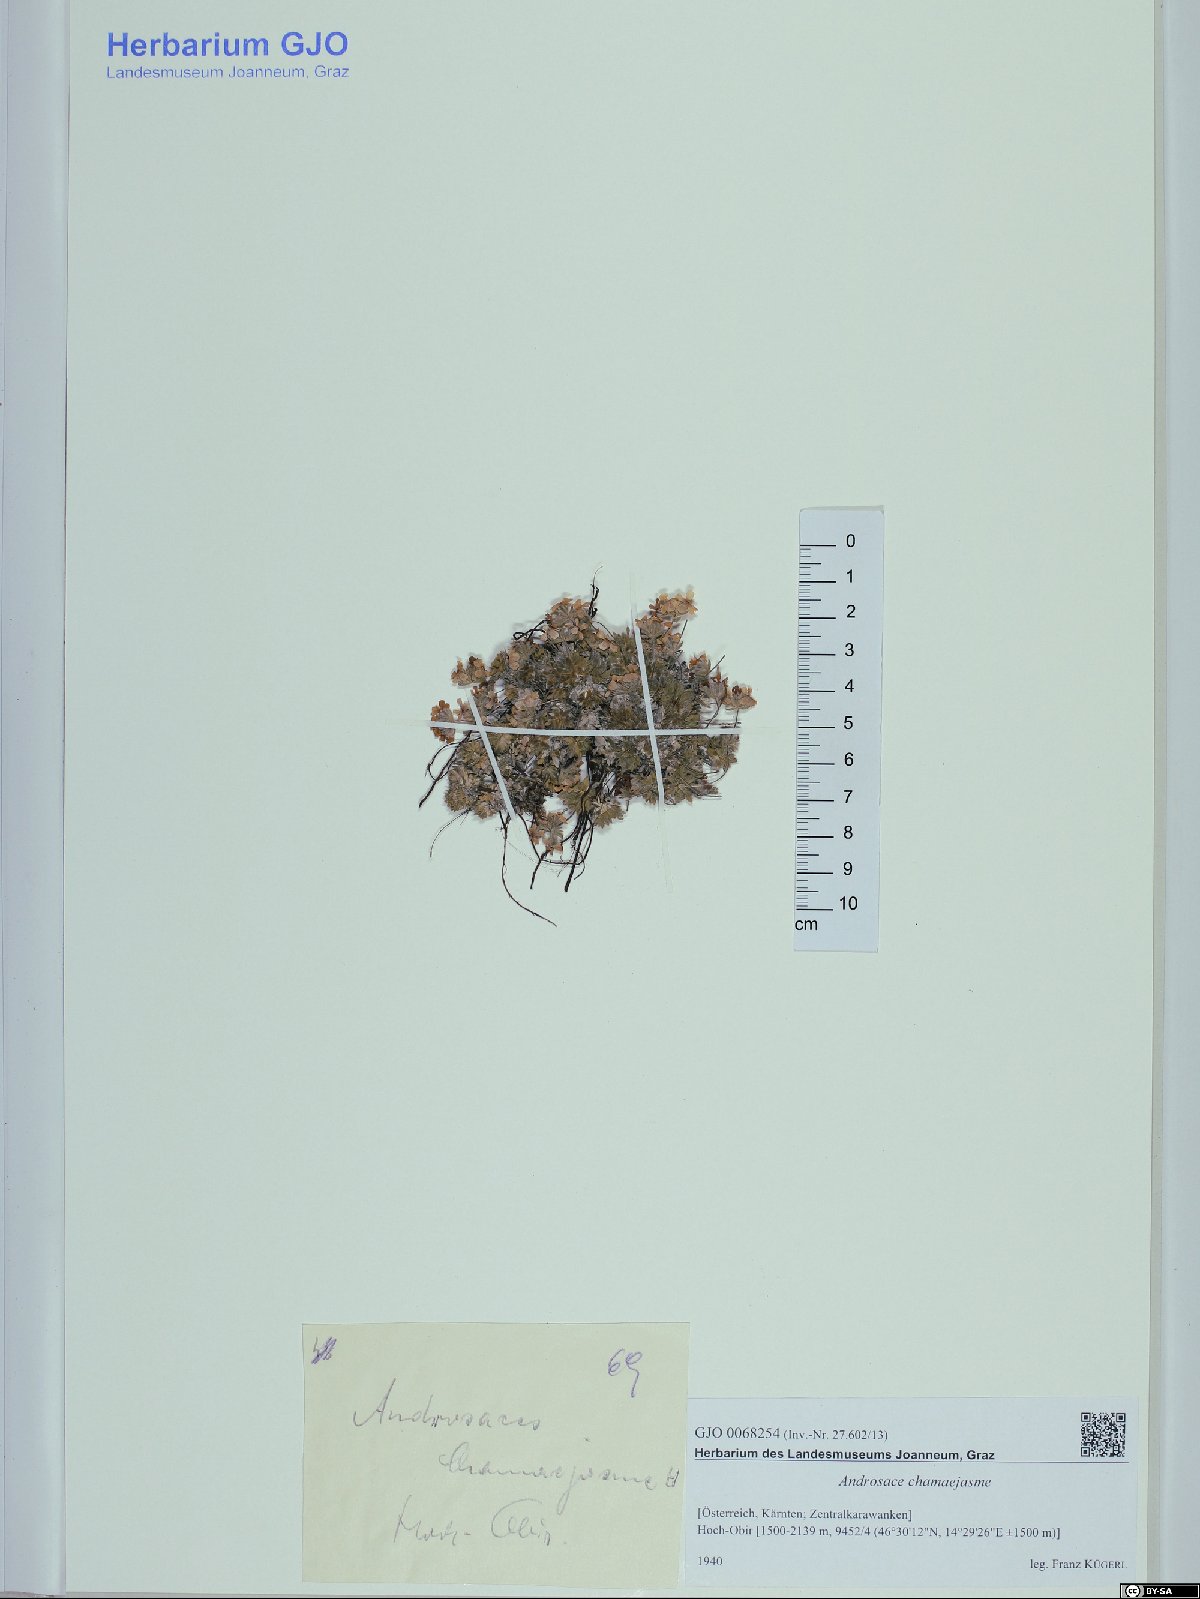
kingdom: Plantae
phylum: Tracheophyta
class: Magnoliopsida
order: Ericales
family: Primulaceae
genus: Androsace
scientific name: Androsace chamaejasme
